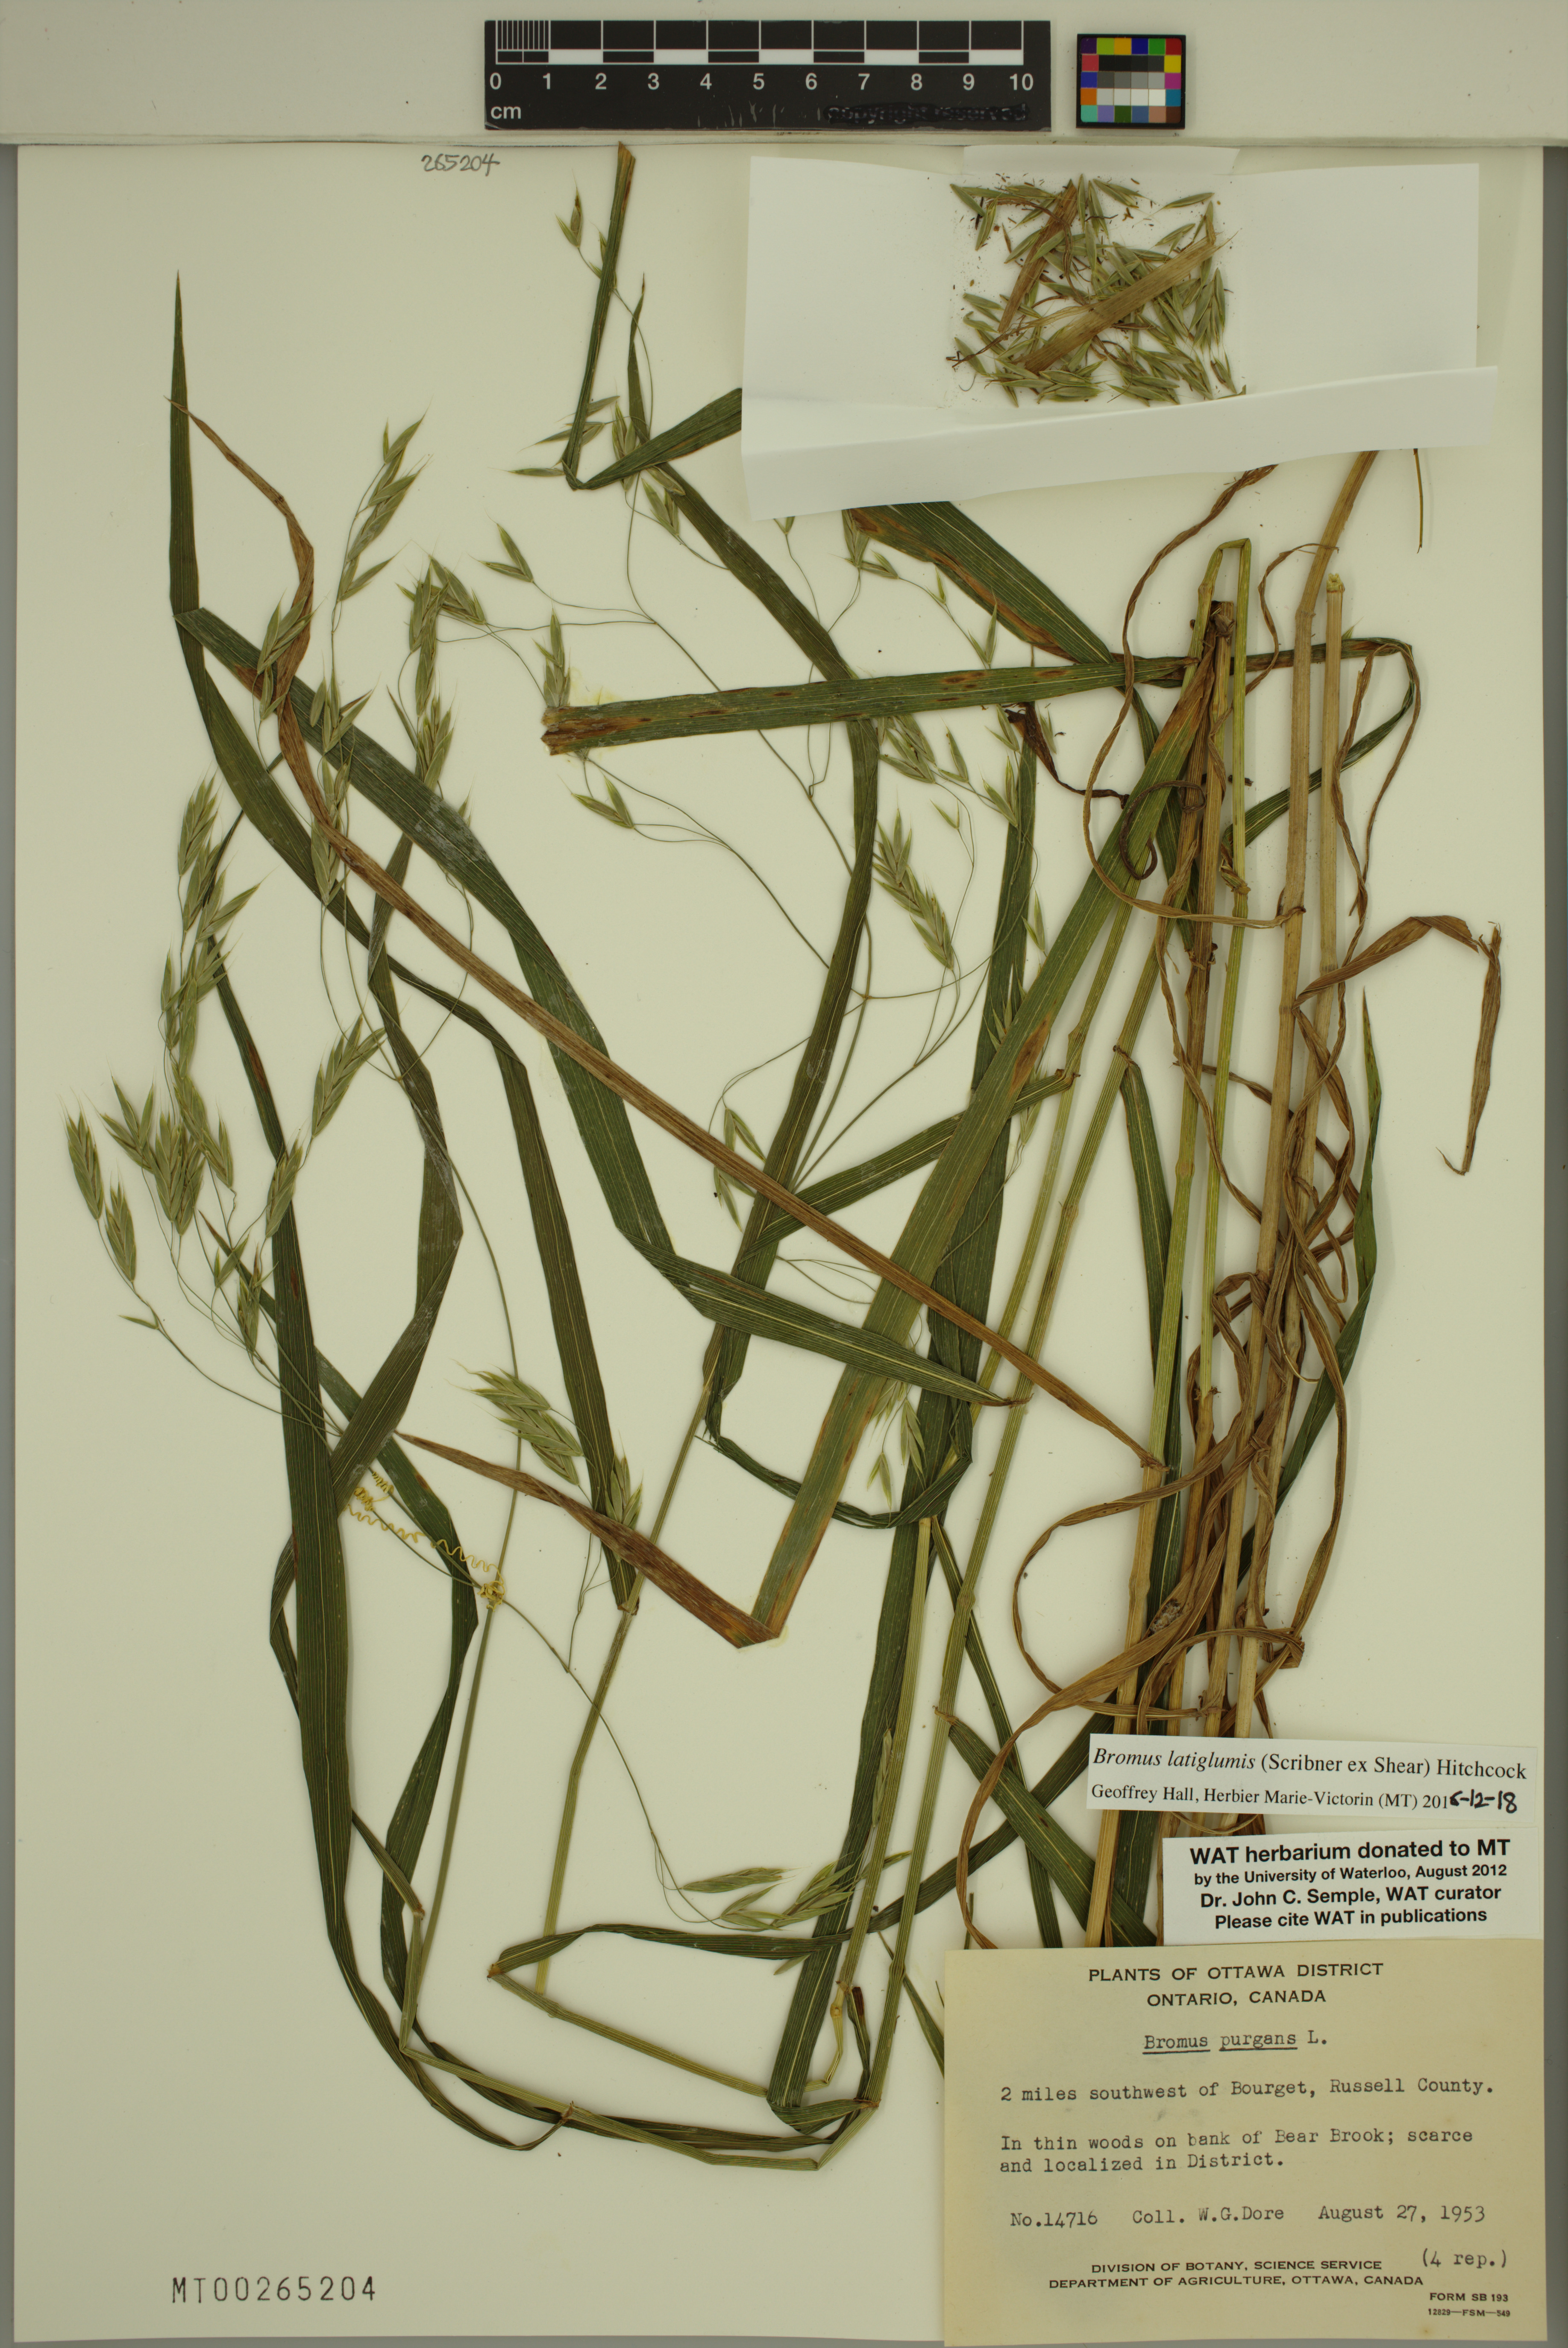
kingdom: Plantae
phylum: Tracheophyta
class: Liliopsida
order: Poales
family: Poaceae
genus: Bromus
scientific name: Bromus latiglumis
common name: Broad-glumed brome
